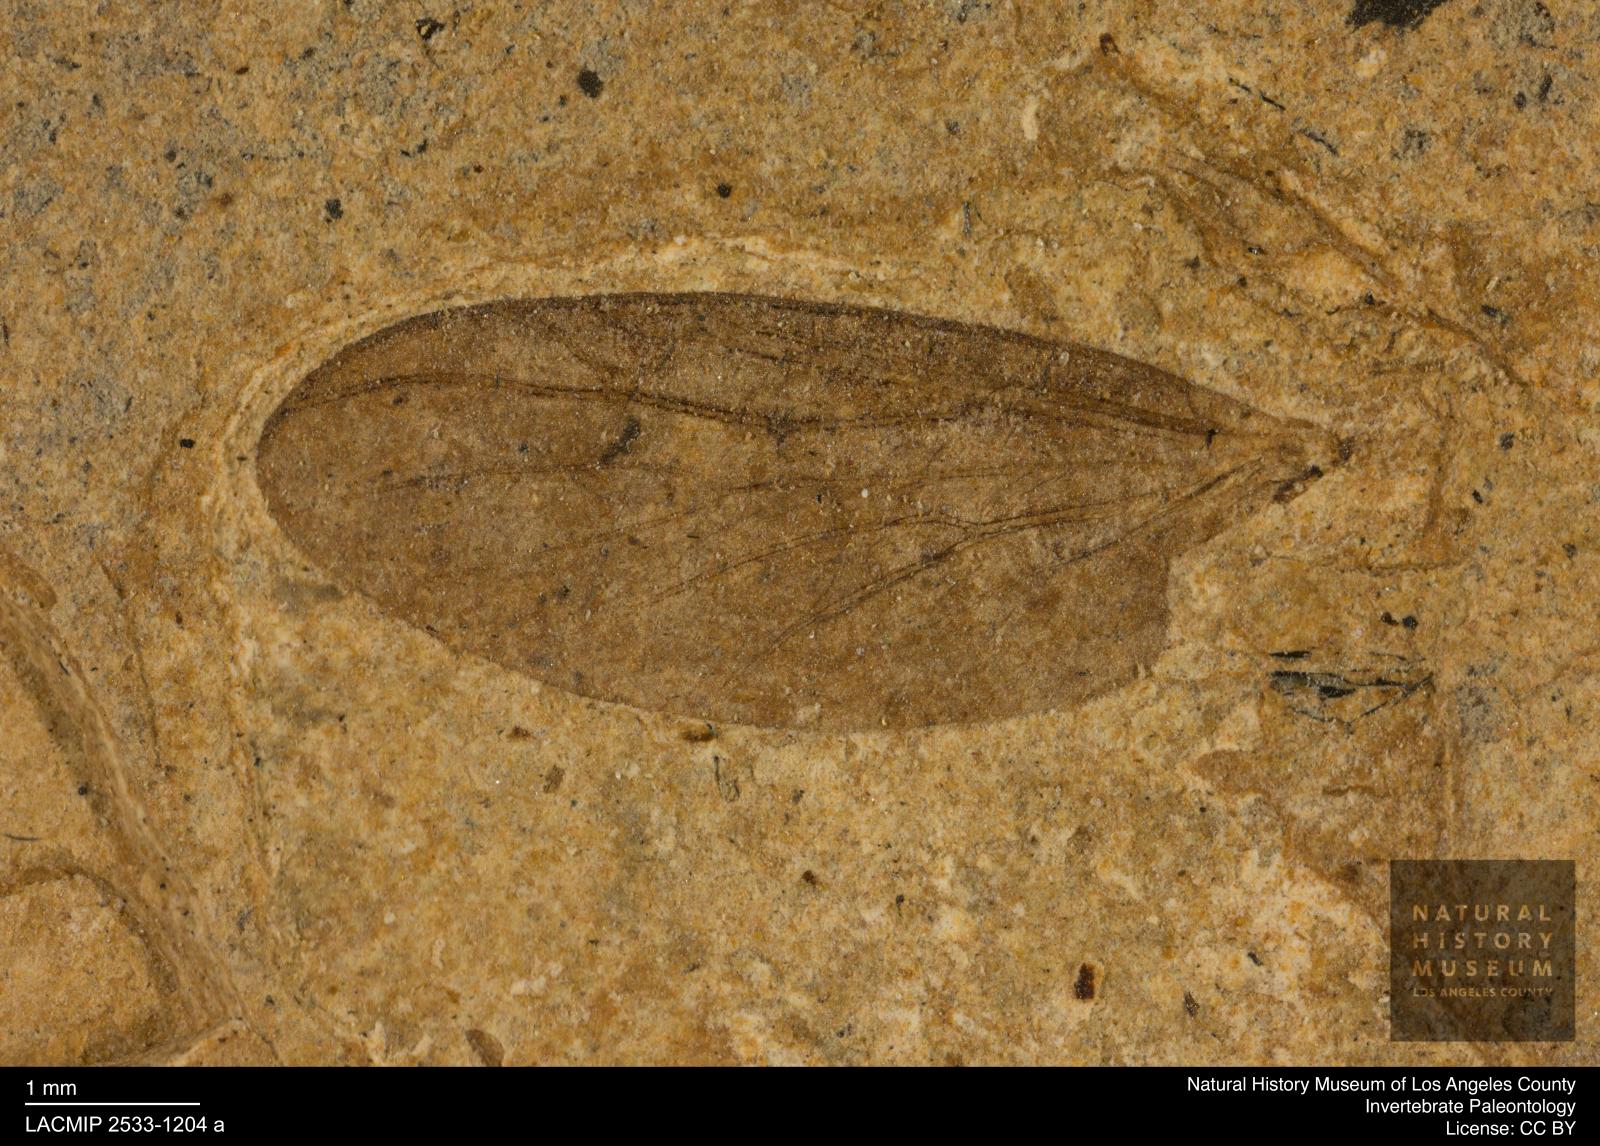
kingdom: Animalia
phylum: Arthropoda
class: Insecta
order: Diptera
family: Bibionidae
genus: Plecia
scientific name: Plecia stygia
